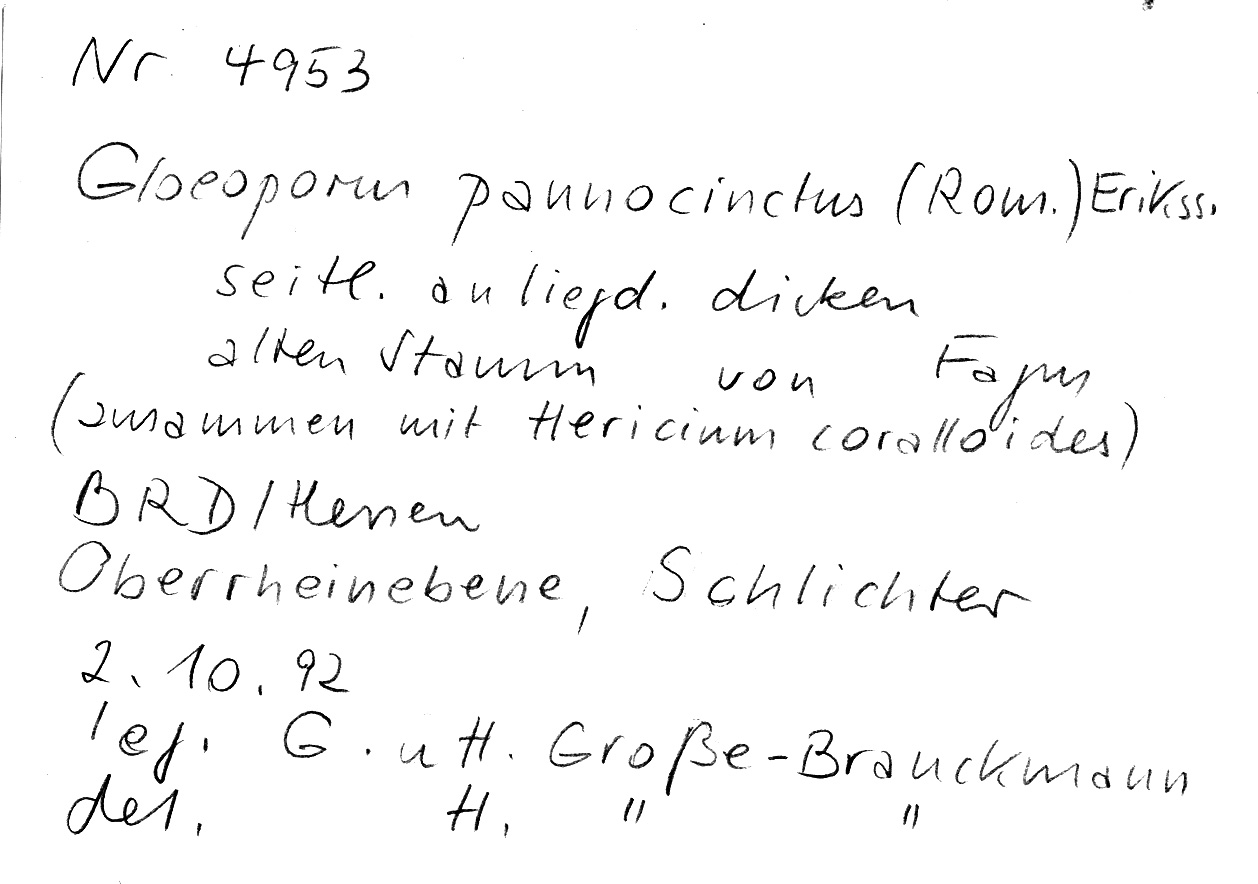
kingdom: Plantae
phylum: Tracheophyta
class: Magnoliopsida
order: Fagales
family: Fagaceae
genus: Fagus
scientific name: Fagus sylvatica
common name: Beech
